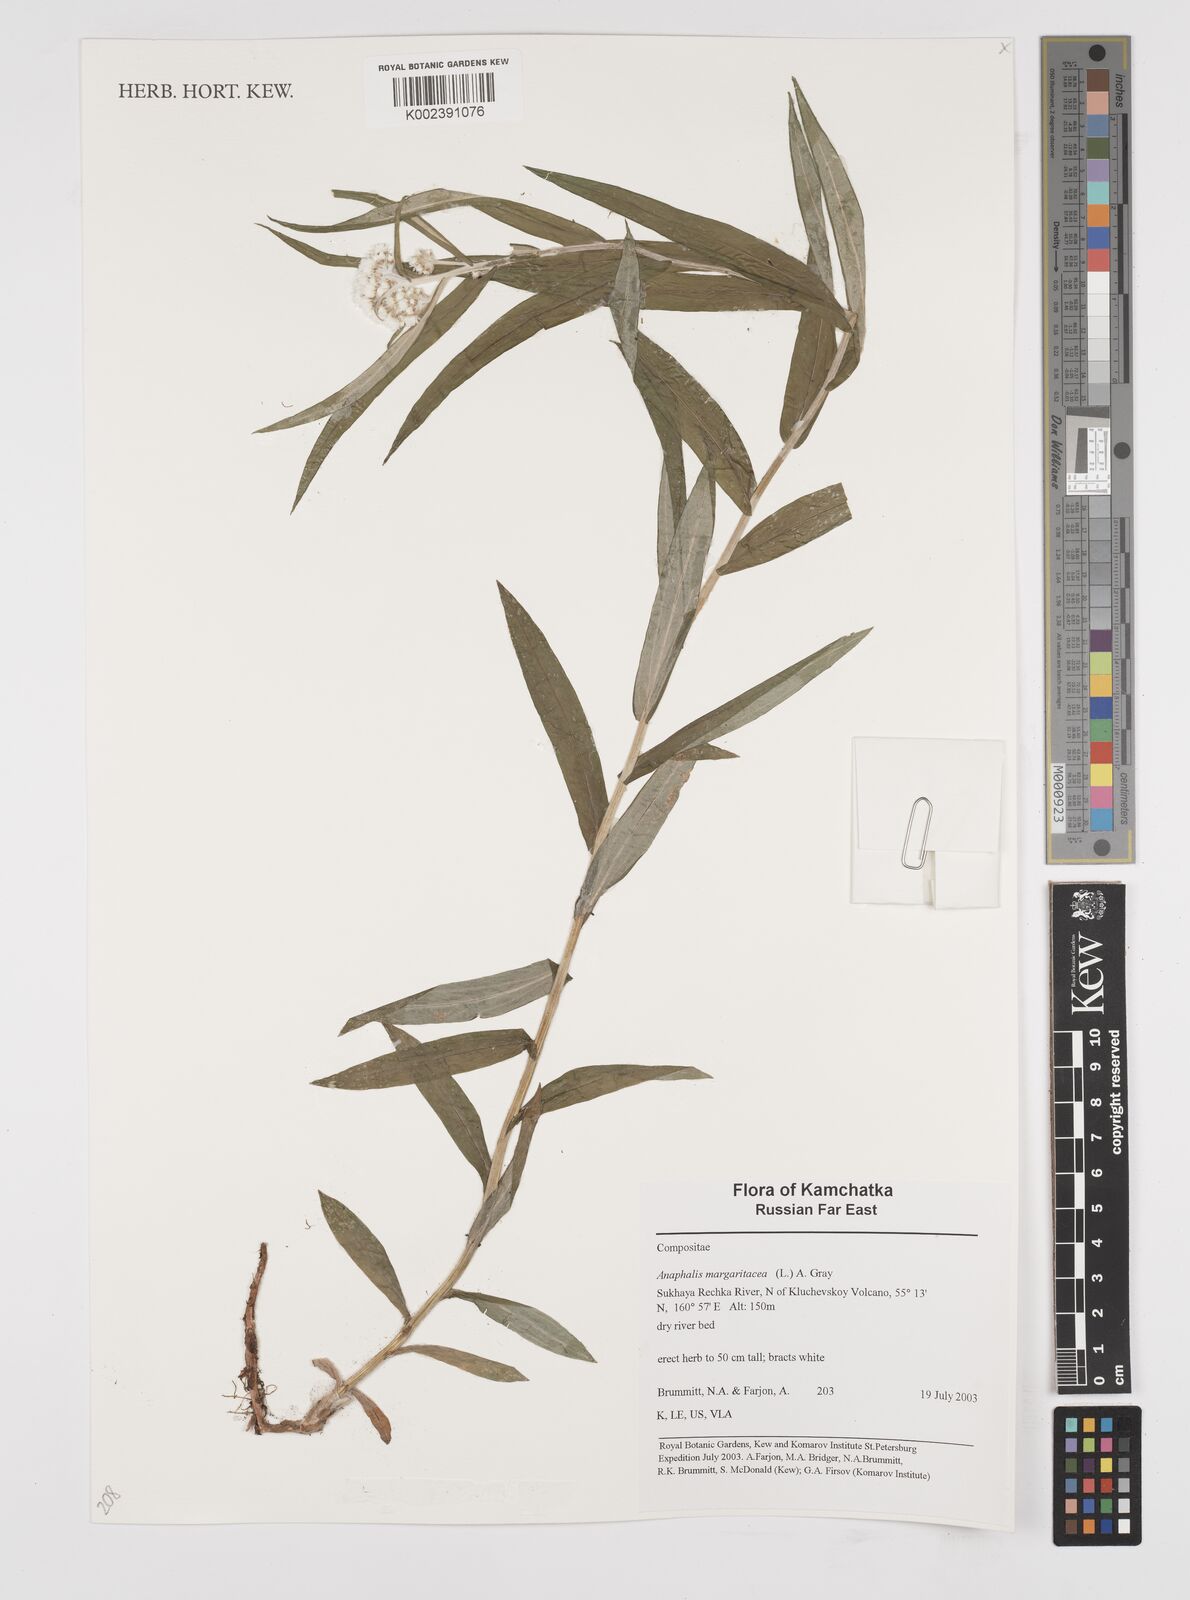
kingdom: Plantae
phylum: Tracheophyta
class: Magnoliopsida
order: Asterales
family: Asteraceae
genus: Anaphalis
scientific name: Anaphalis margaritacea
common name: Pearly everlasting
